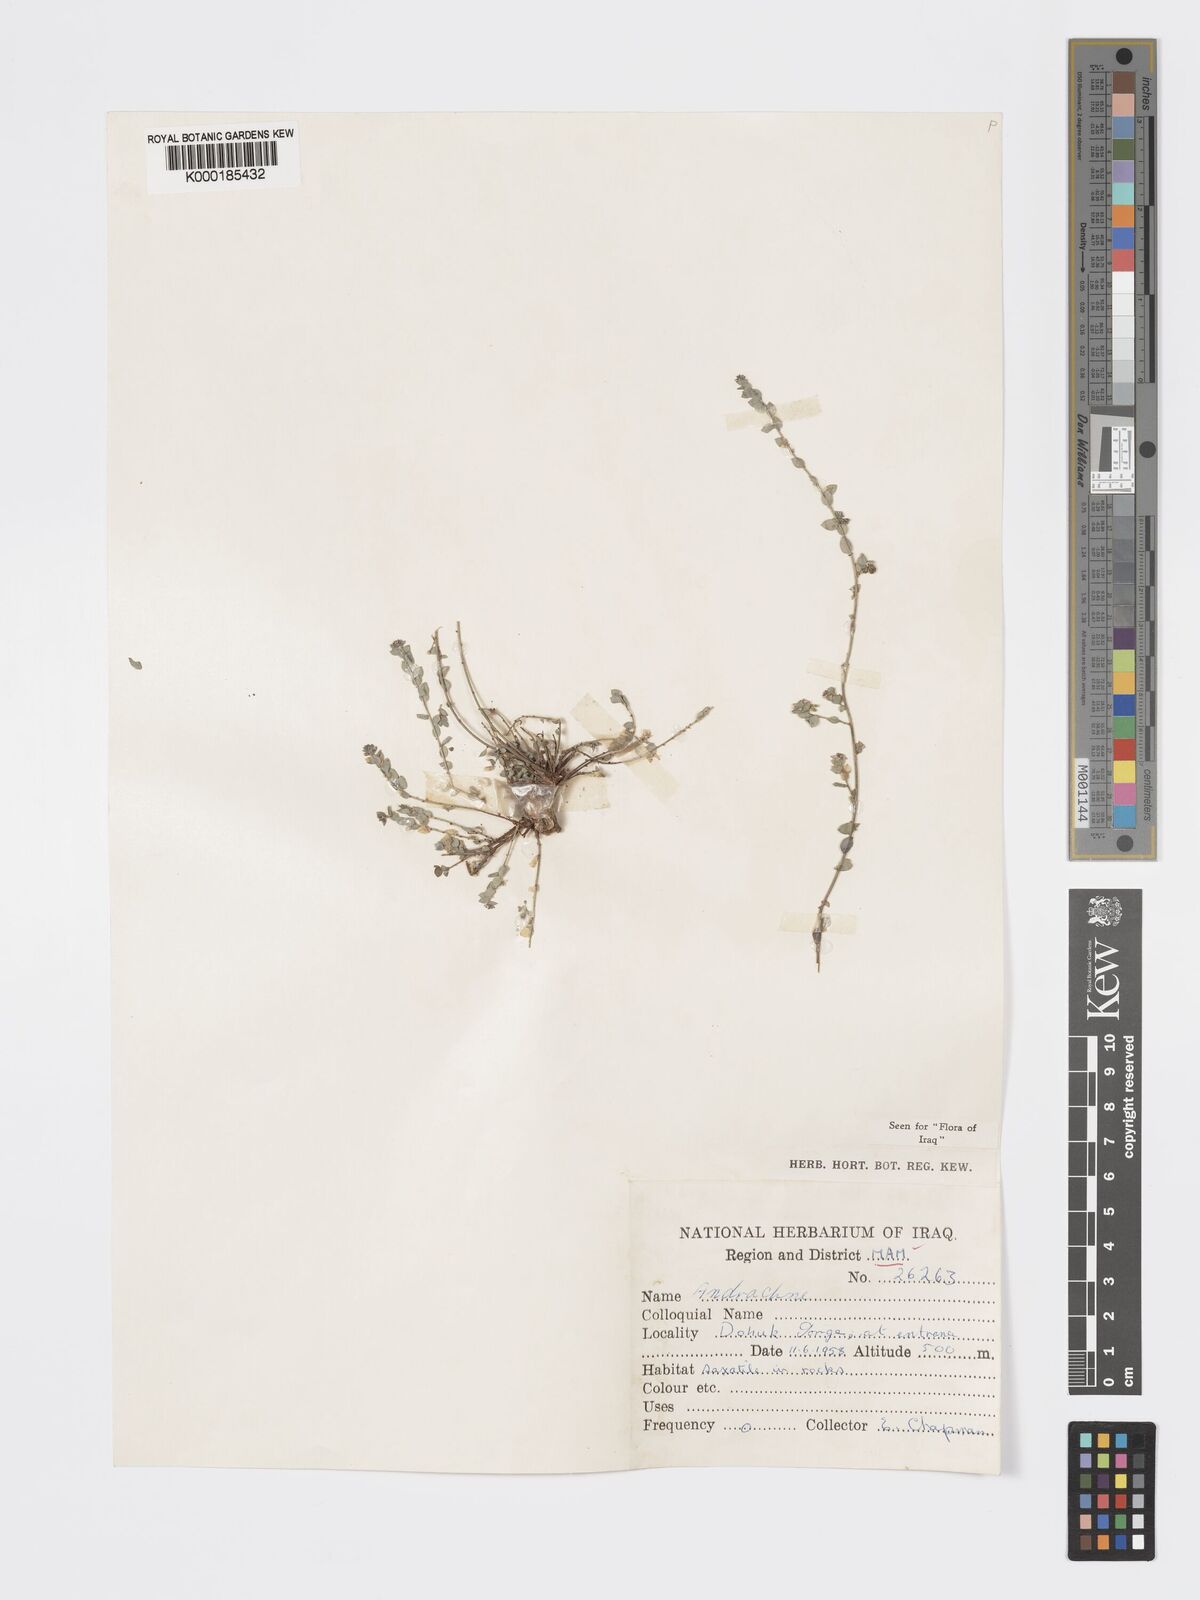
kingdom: Plantae
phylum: Tracheophyta
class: Magnoliopsida
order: Malpighiales
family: Phyllanthaceae
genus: Andrachne
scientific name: Andrachne telephioides
